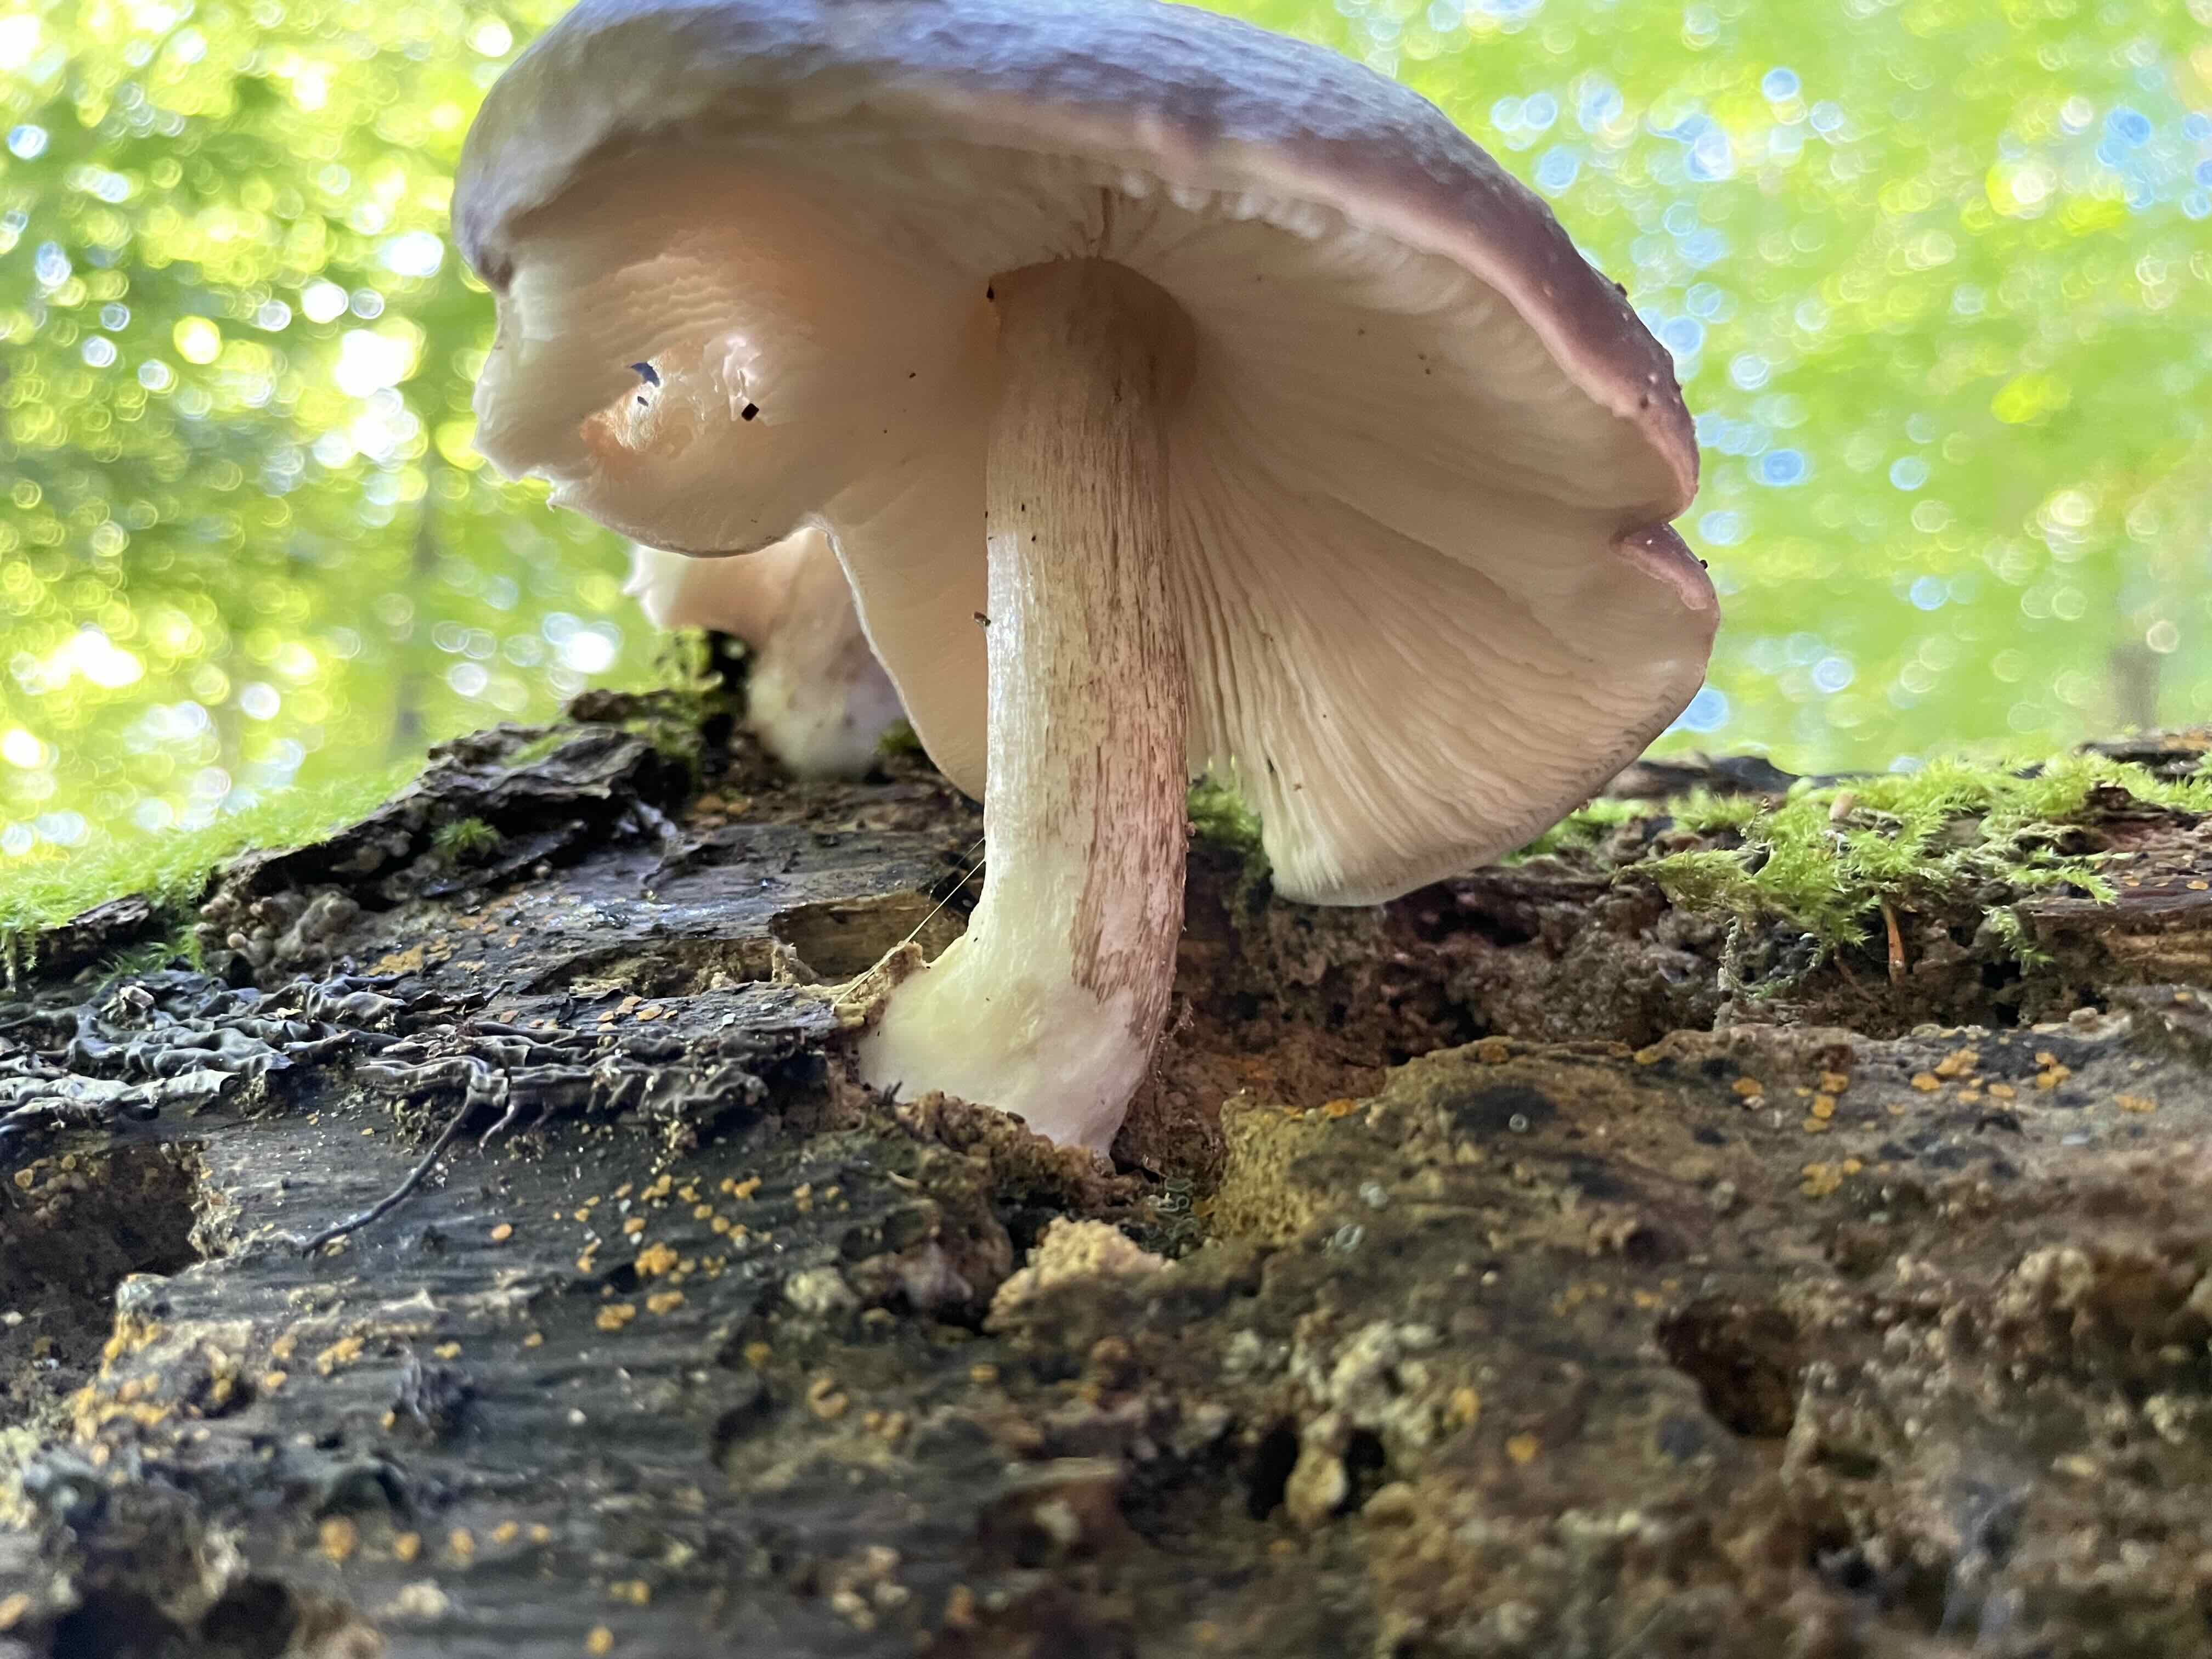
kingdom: Fungi
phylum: Basidiomycota
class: Agaricomycetes
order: Agaricales
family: Pluteaceae
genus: Pluteus
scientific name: Pluteus cervinus
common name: sodfarvet skærmhat
